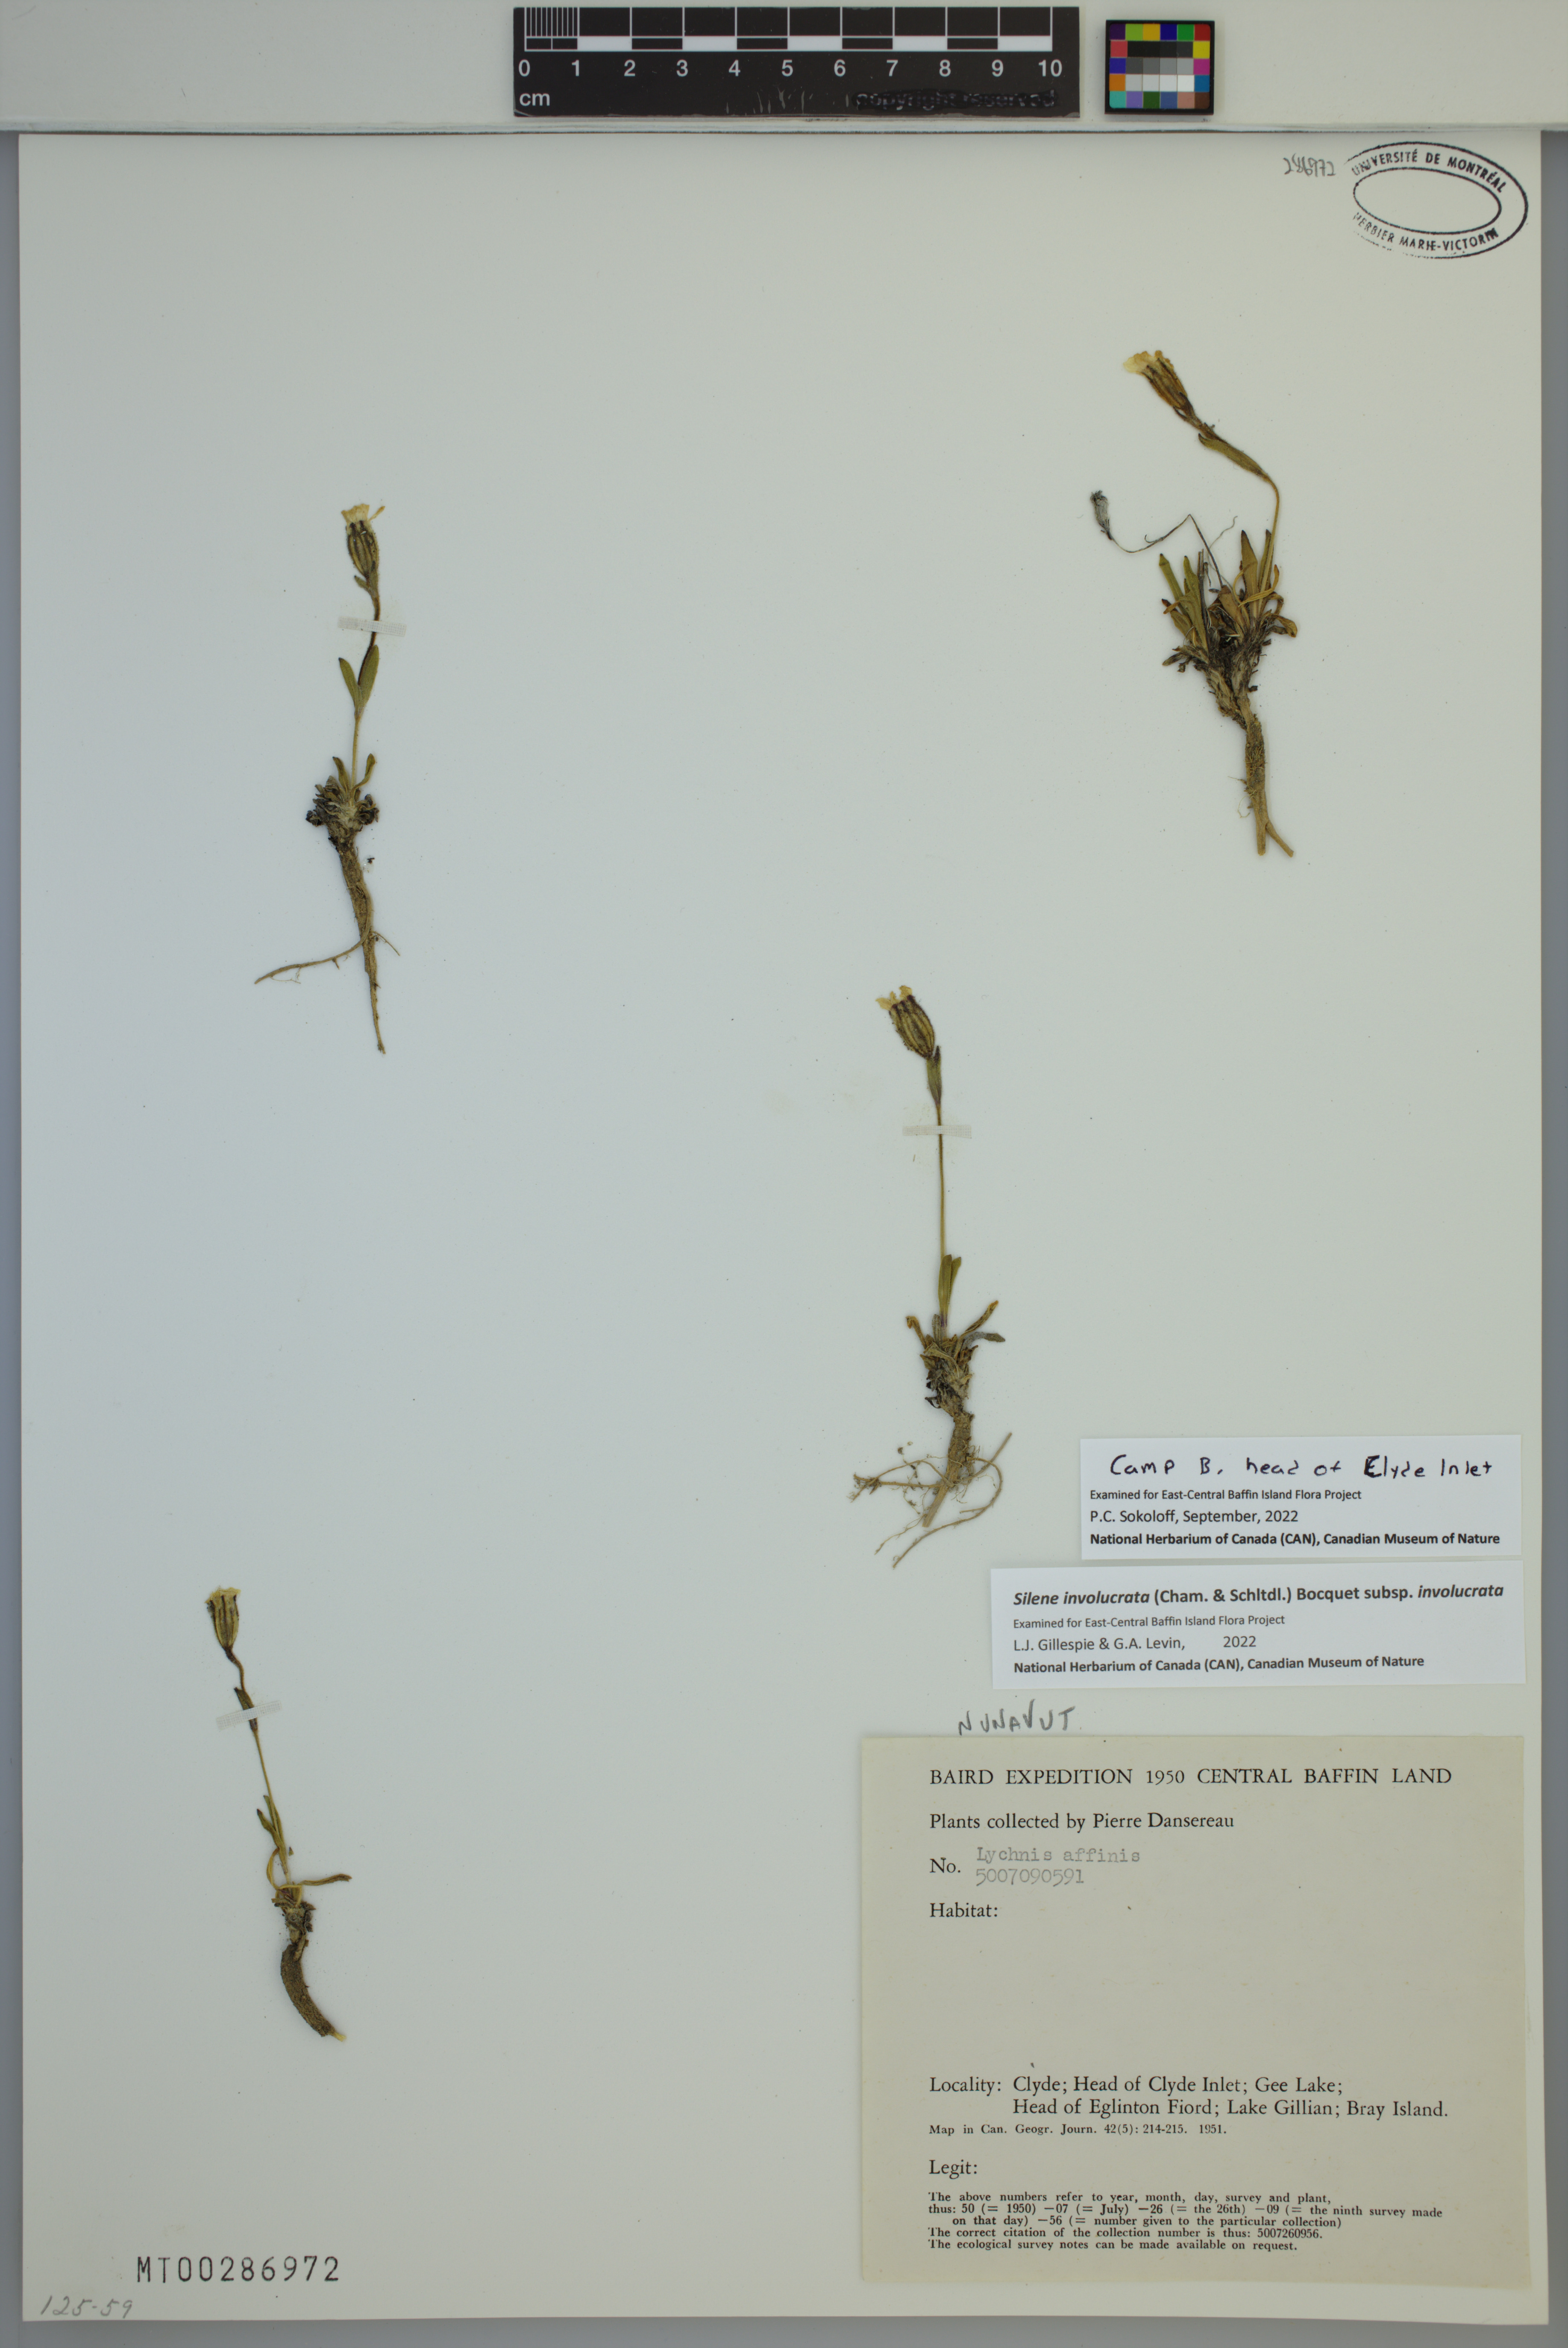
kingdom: Plantae
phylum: Tracheophyta
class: Magnoliopsida
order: Caryophyllales
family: Caryophyllaceae
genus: Silene
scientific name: Silene involucrata
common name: Greater arctic campion
